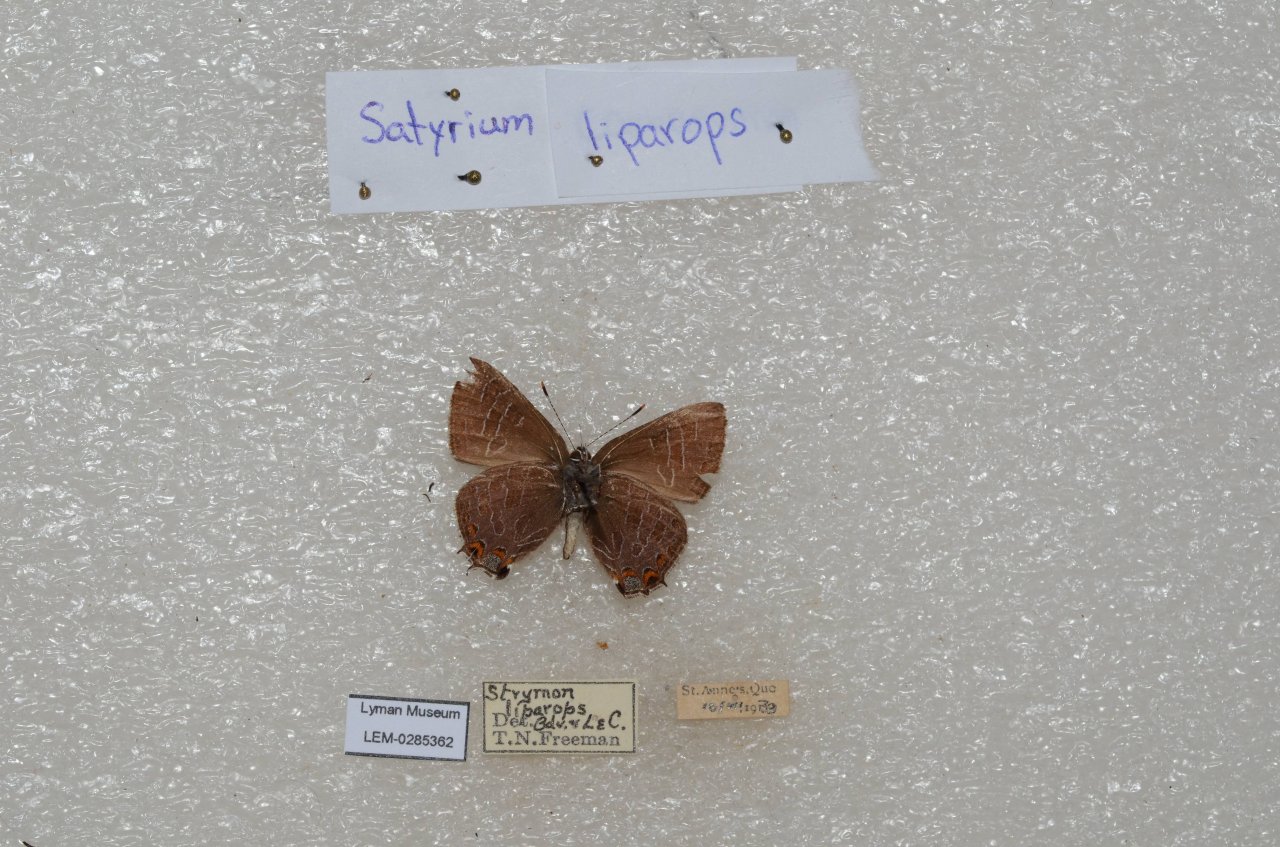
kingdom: Animalia
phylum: Arthropoda
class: Insecta
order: Lepidoptera
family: Lycaenidae
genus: Satyrium
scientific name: Satyrium liparops
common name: Striped Hairstreak
